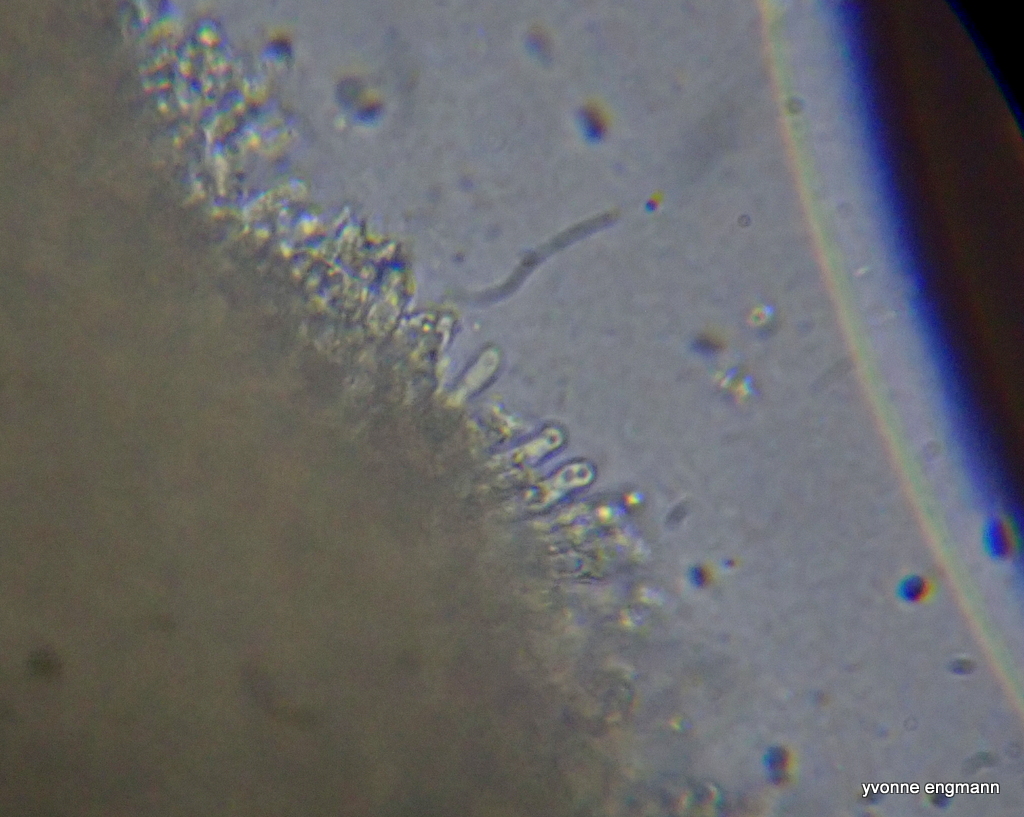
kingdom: Fungi
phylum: Basidiomycota
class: Agaricomycetes
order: Agaricales
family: Hygrophoraceae
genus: Hygrocybe
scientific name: Hygrocybe
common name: vokshat
